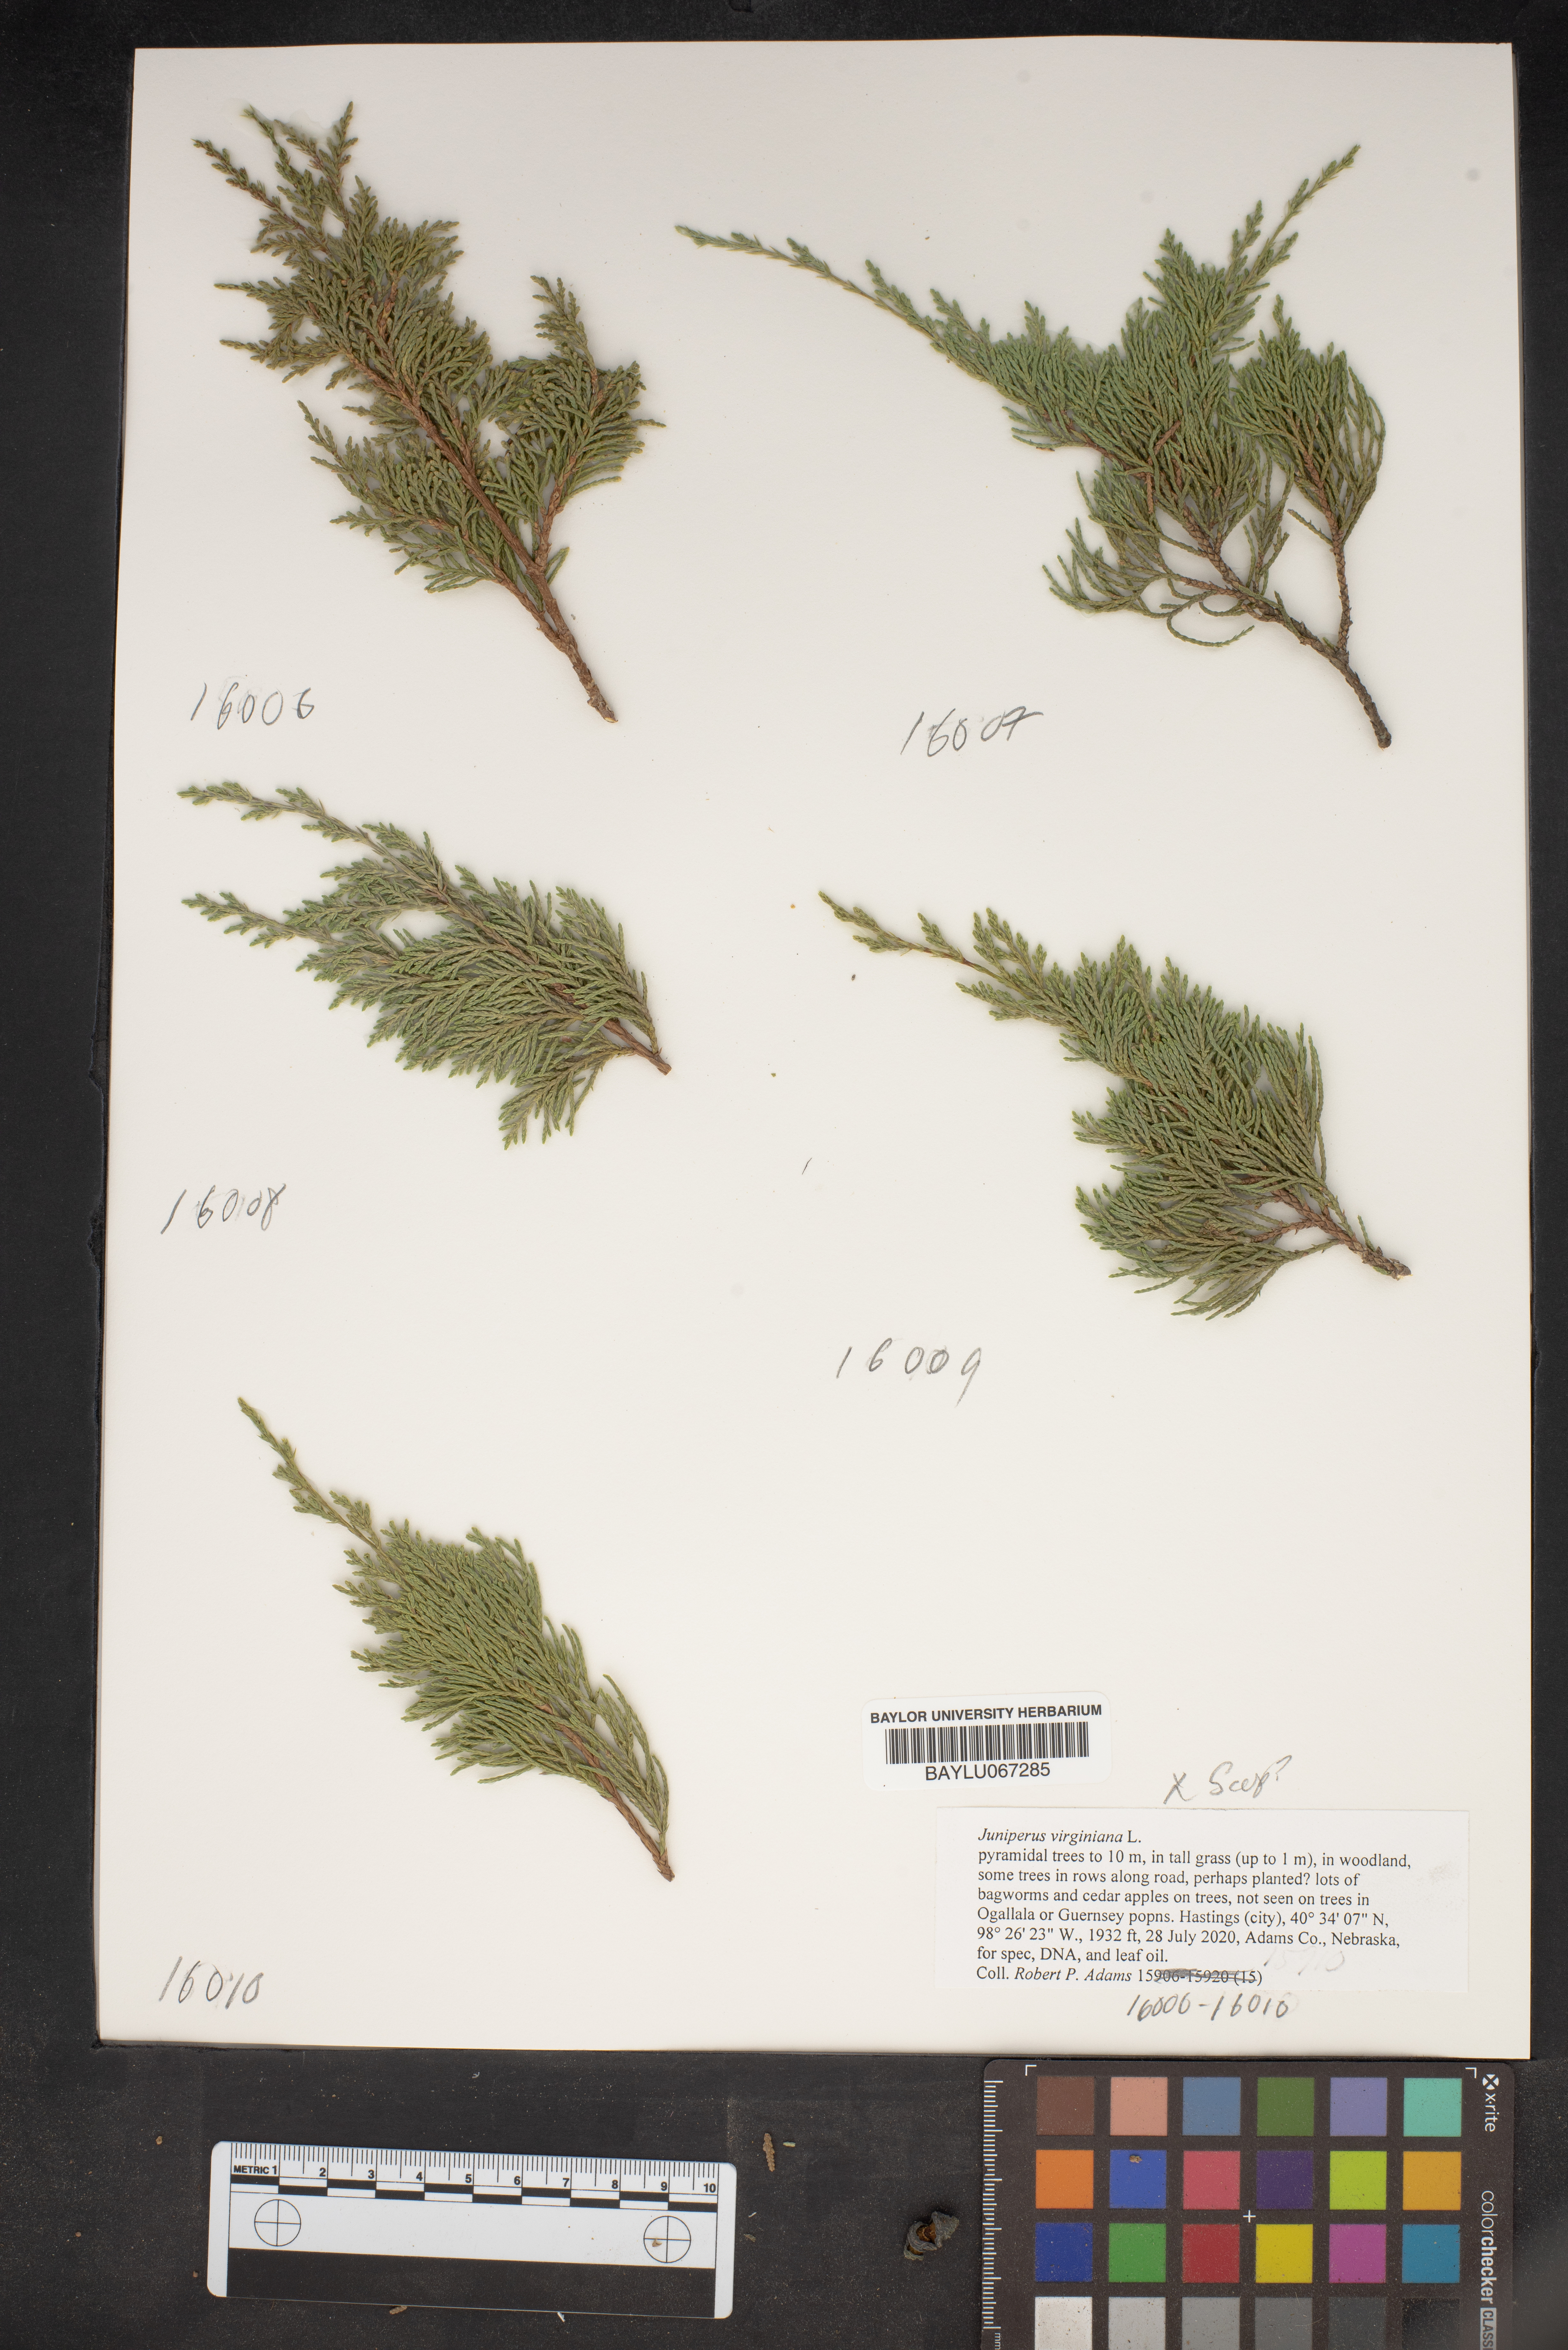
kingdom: Plantae
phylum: Tracheophyta
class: Pinopsida
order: Pinales
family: Cupressaceae
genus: Juniperus
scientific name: Juniperus virginiana
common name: Red juniper
